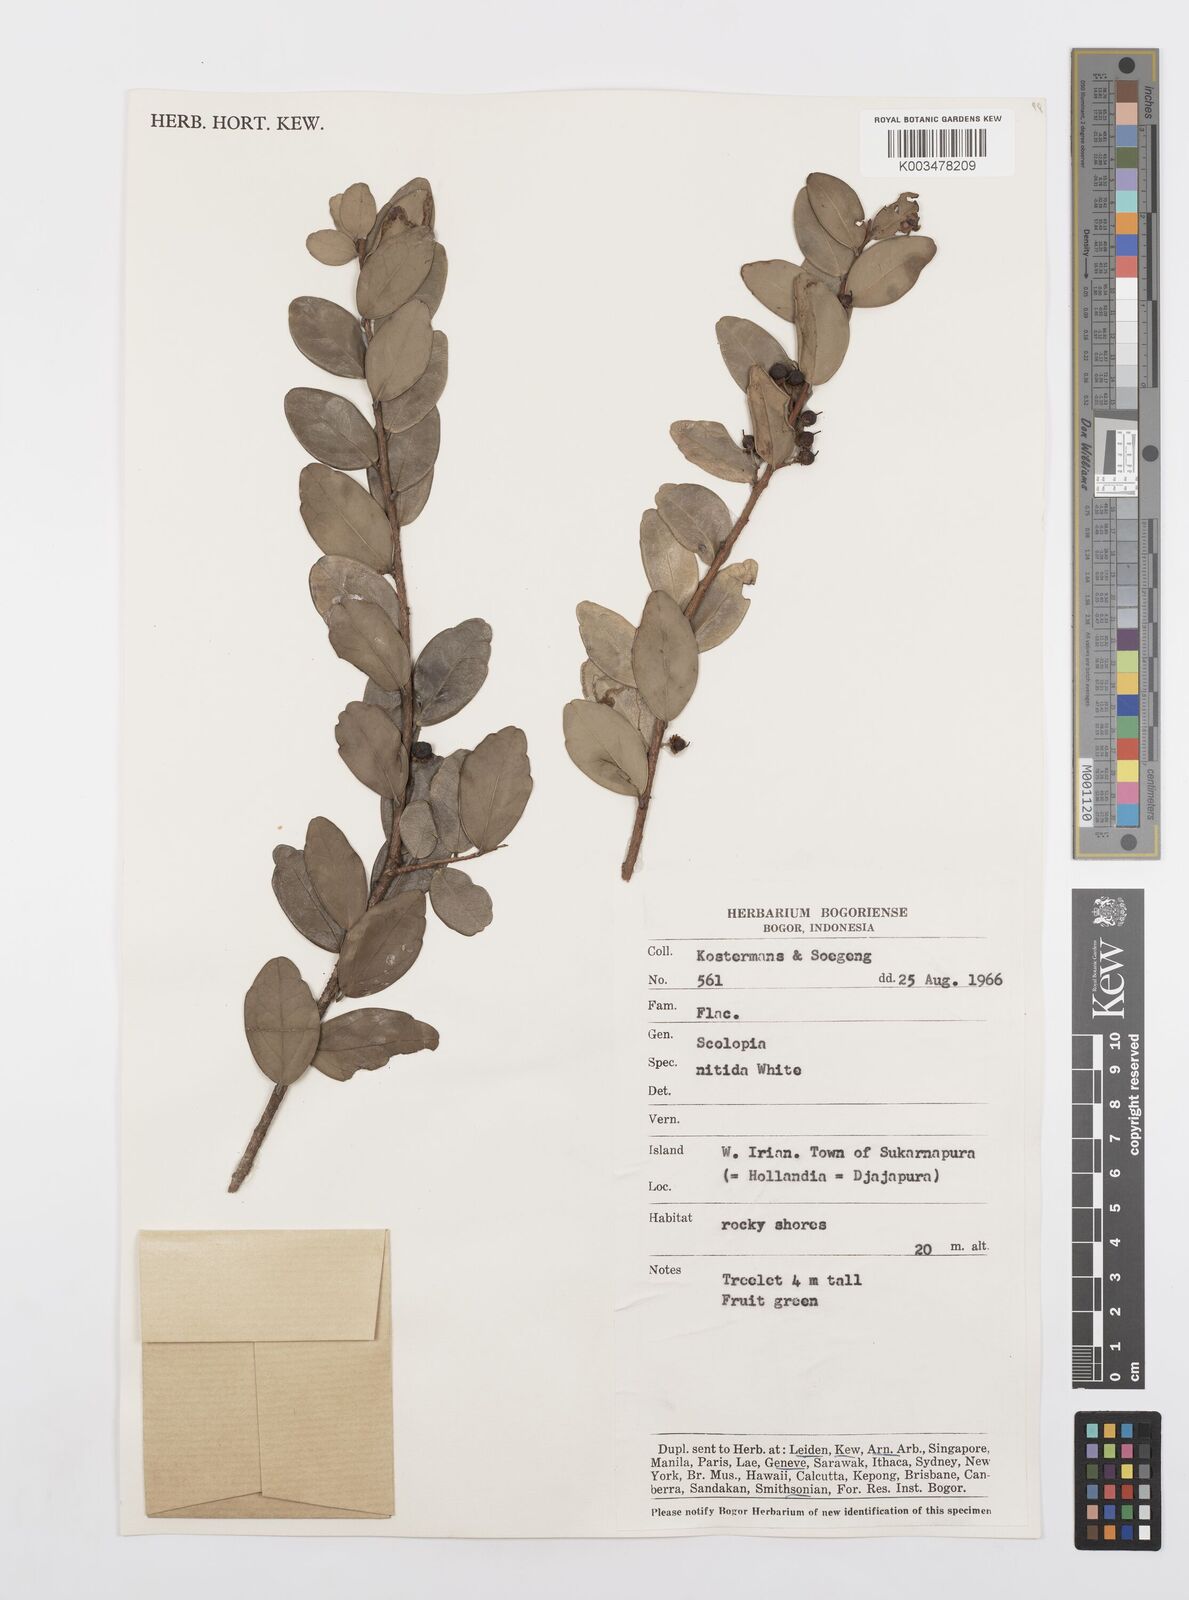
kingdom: Plantae
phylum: Tracheophyta
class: Magnoliopsida
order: Malpighiales
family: Salicaceae
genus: Scolopia
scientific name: Scolopia nitida
